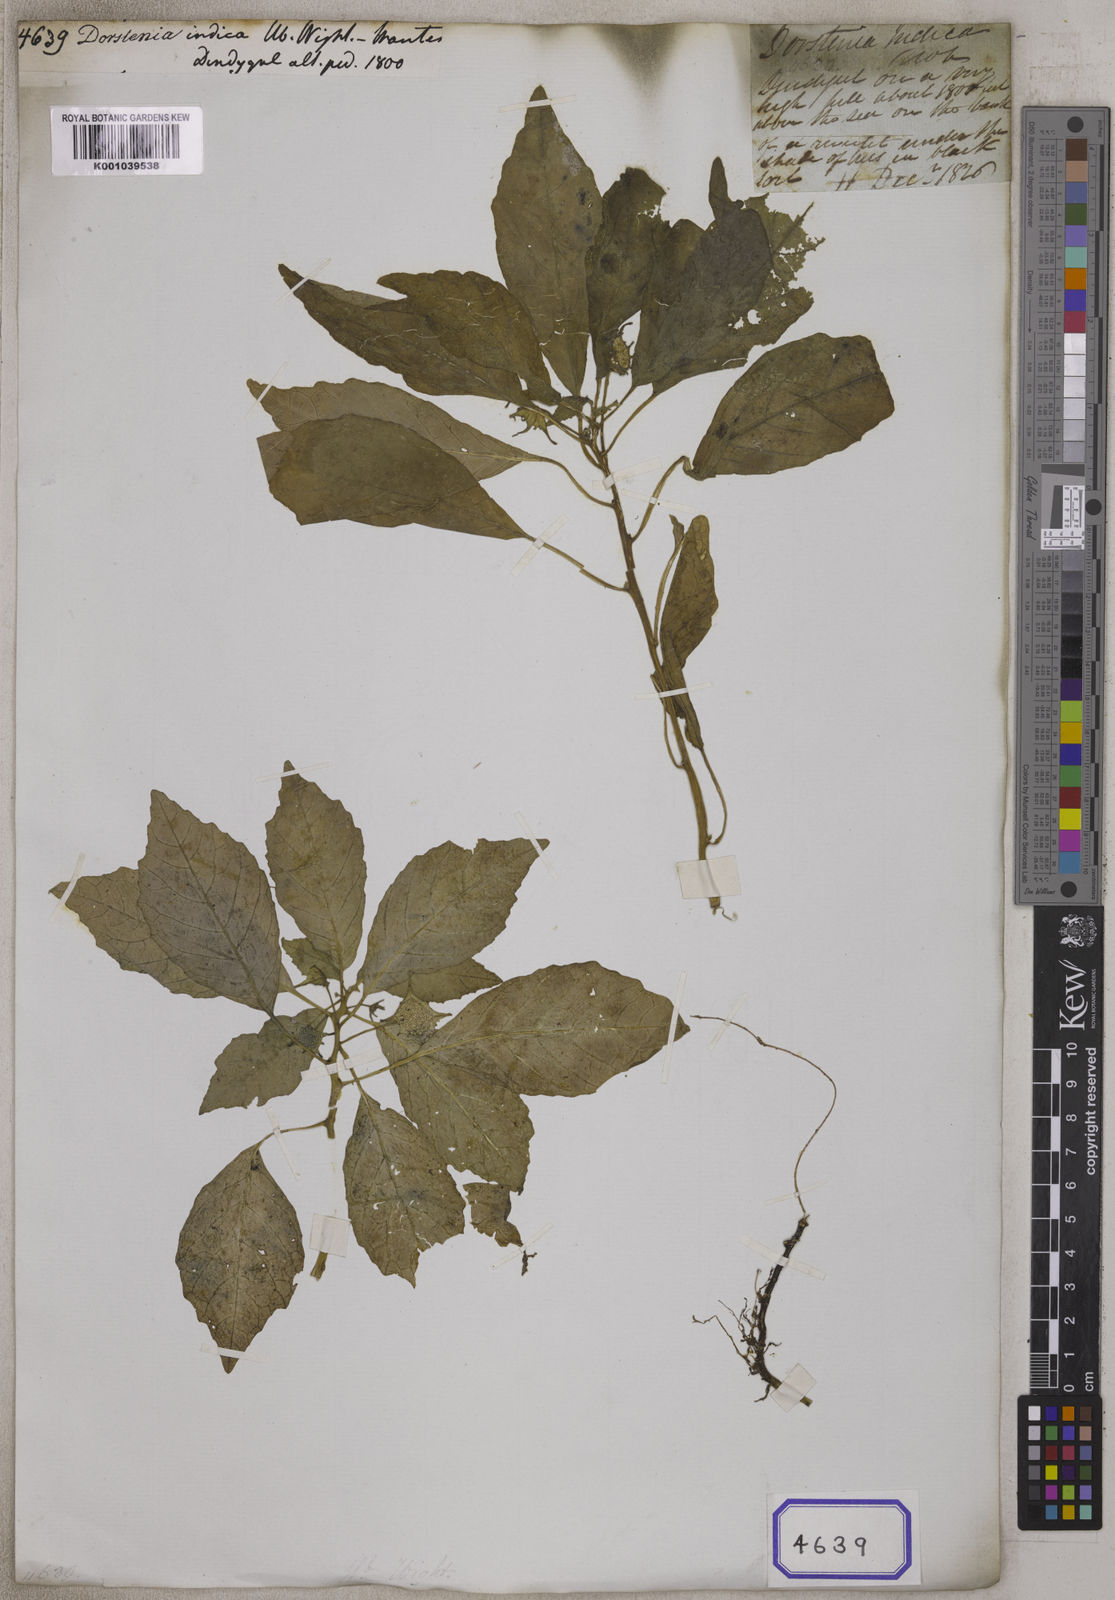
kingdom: Plantae
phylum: Tracheophyta
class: Magnoliopsida
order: Rosales
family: Moraceae
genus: Dorstenia
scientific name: Dorstenia
